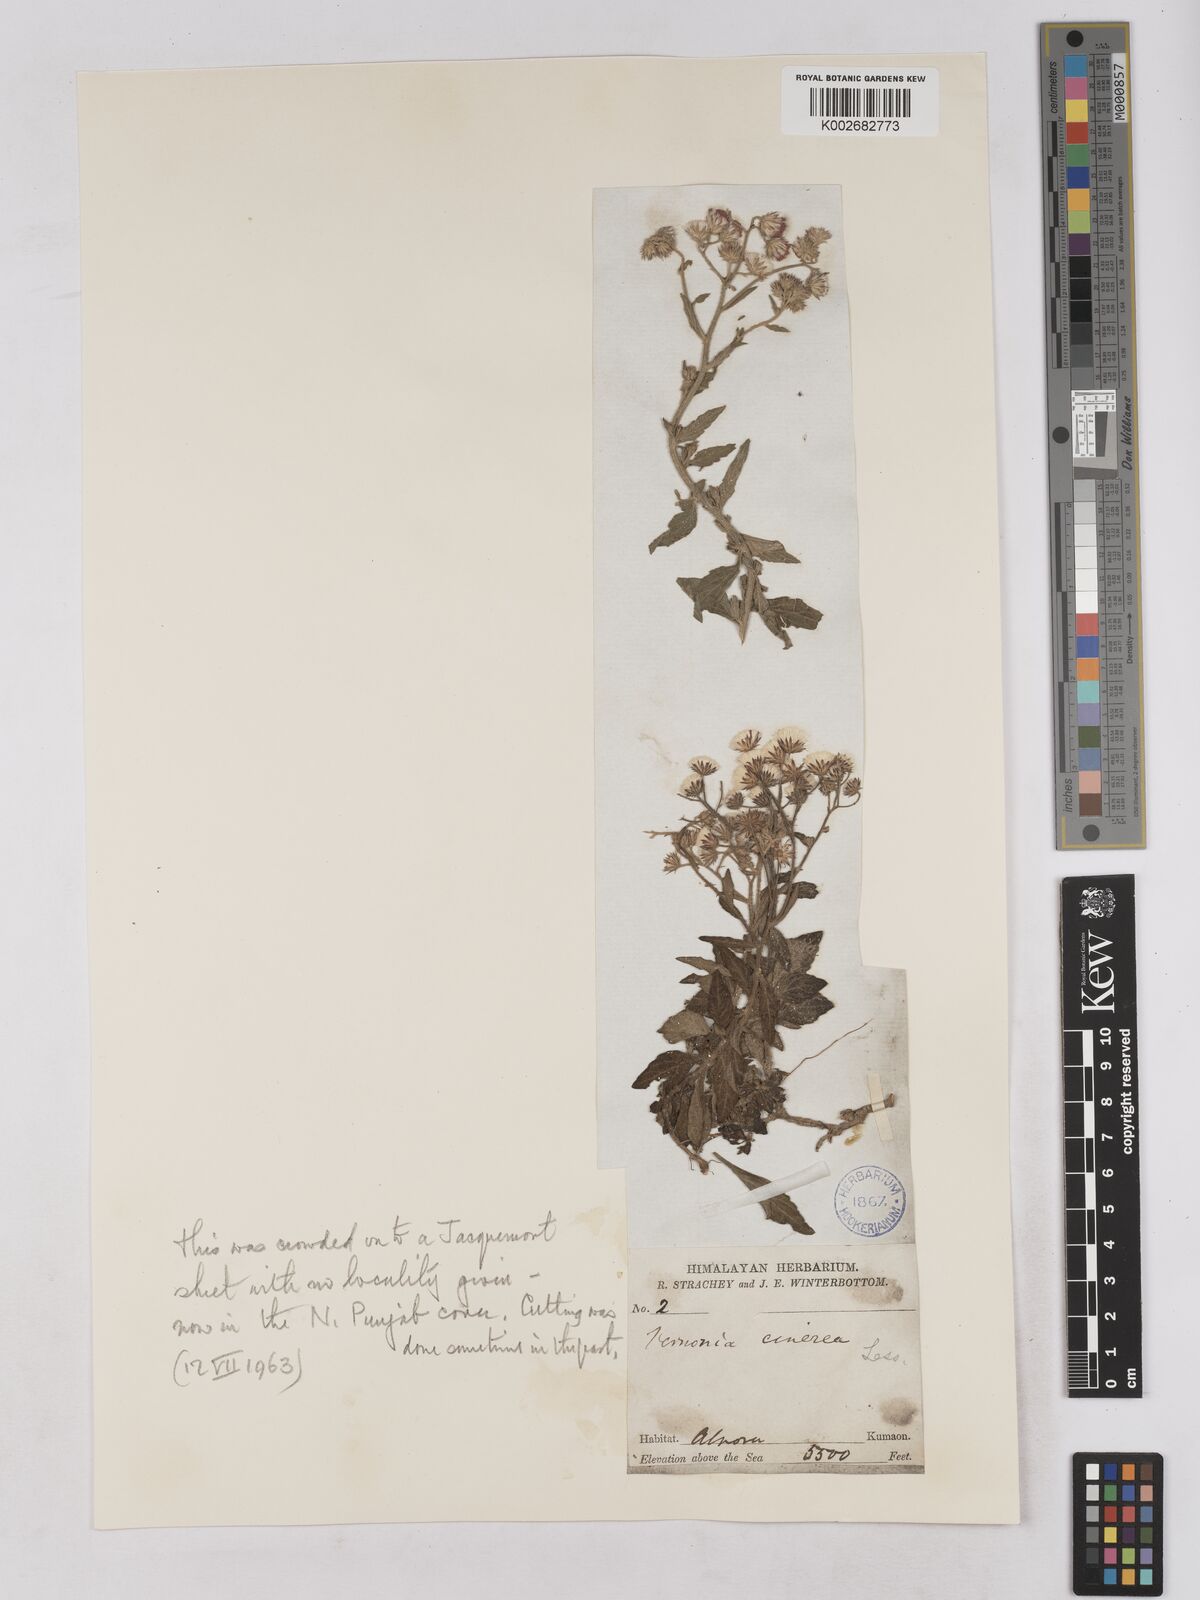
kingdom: Plantae
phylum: Tracheophyta
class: Magnoliopsida
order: Asterales
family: Asteraceae
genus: Cyanthillium
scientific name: Cyanthillium cinereum
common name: Little ironweed
